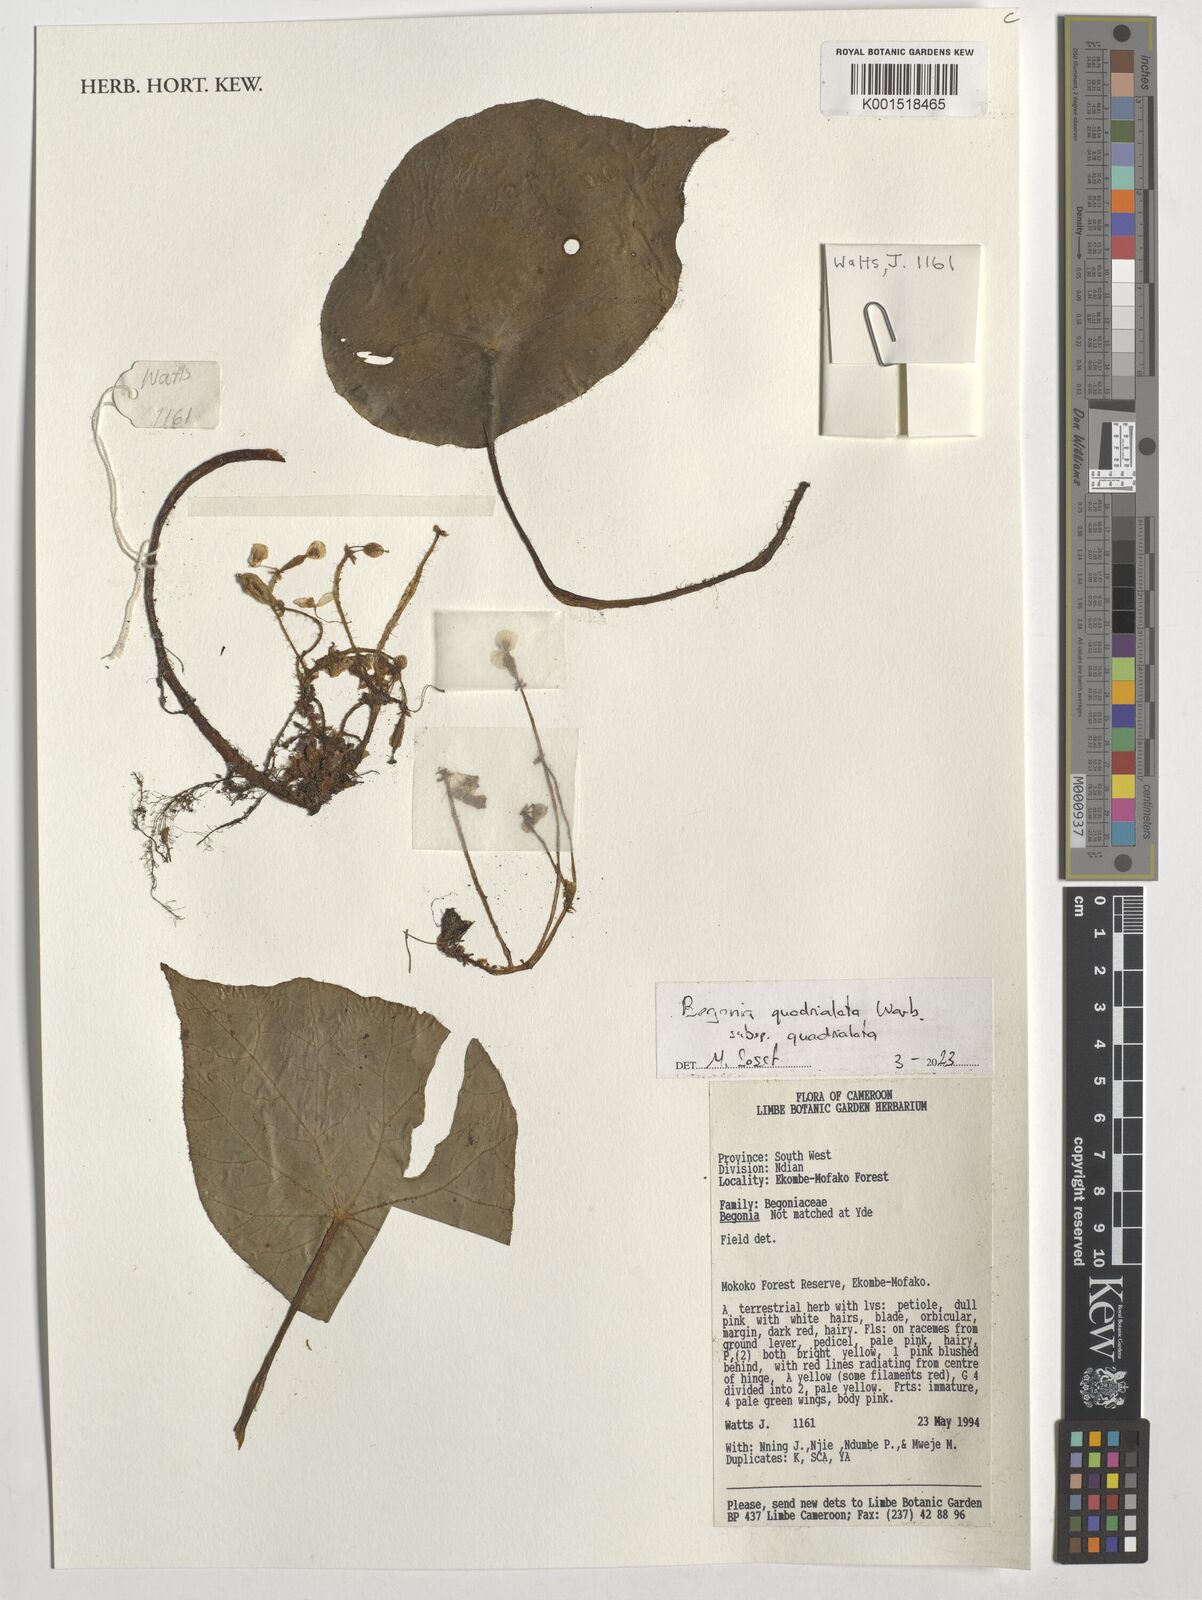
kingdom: Plantae
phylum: Tracheophyta
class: Magnoliopsida
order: Cucurbitales
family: Begoniaceae
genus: Begonia
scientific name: Begonia quadrialata
